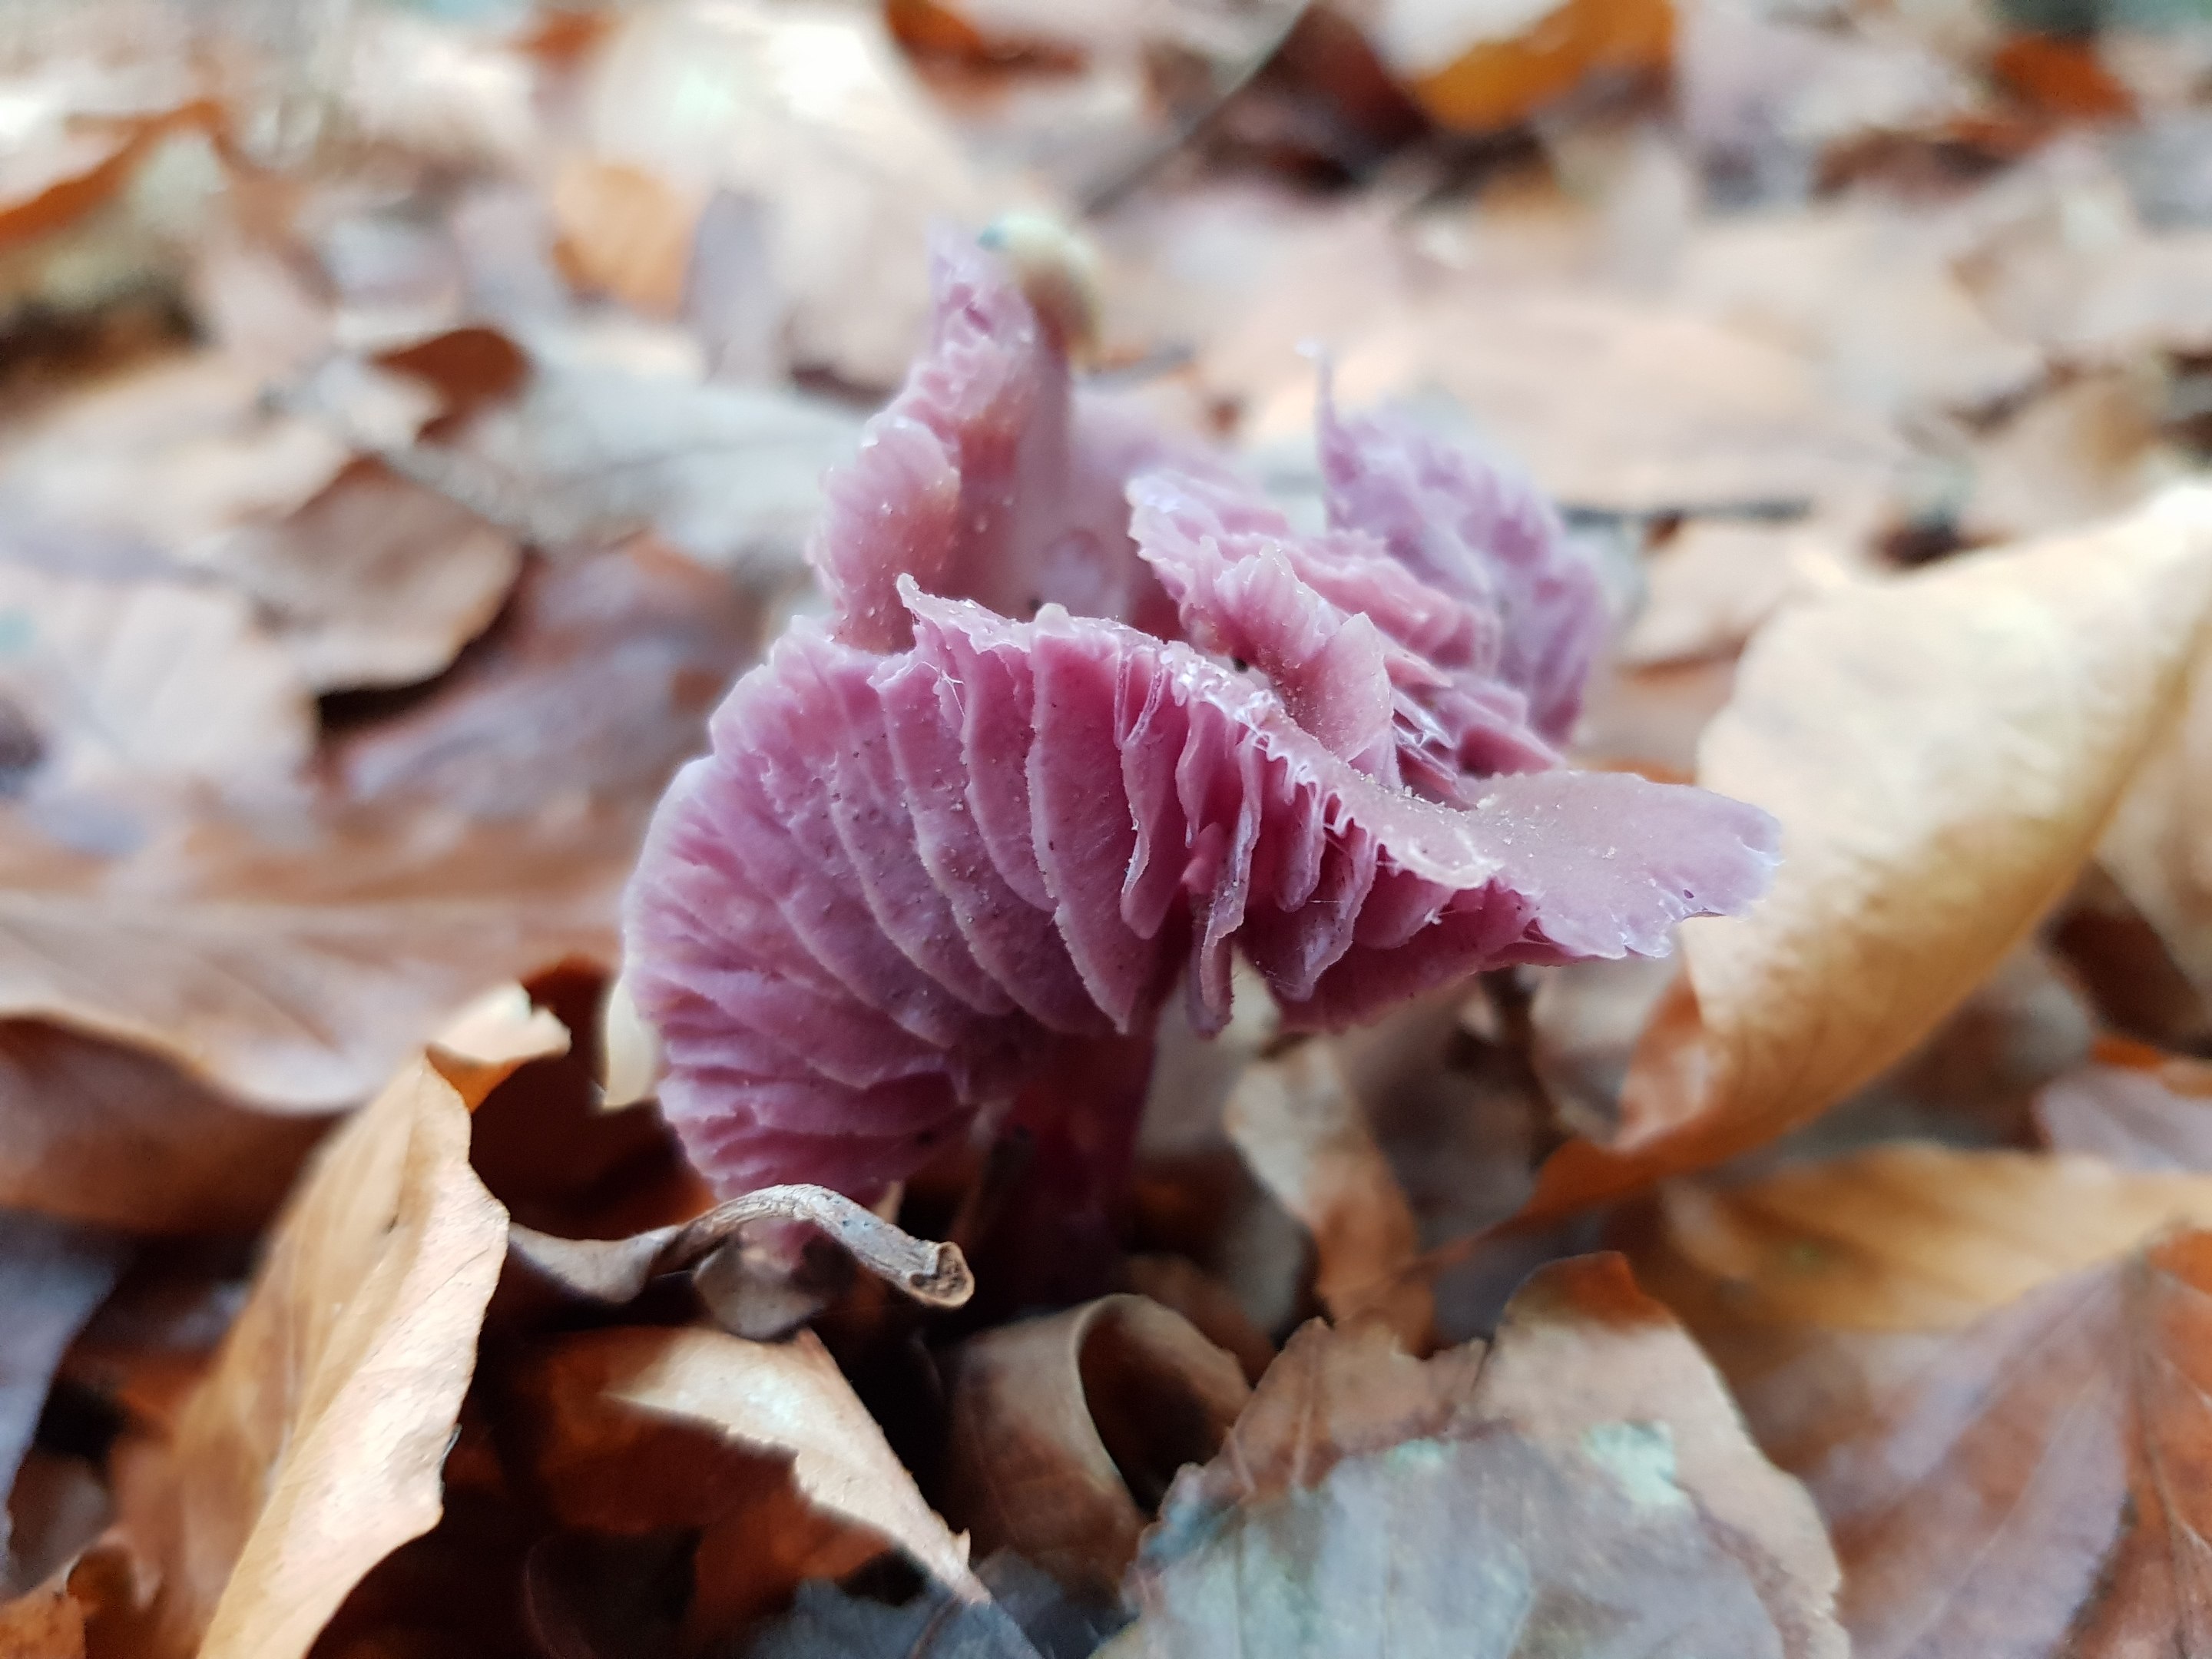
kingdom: Fungi
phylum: Basidiomycota
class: Agaricomycetes
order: Agaricales
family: Hydnangiaceae
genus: Laccaria
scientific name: Laccaria amethystina
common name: violet ametysthat
